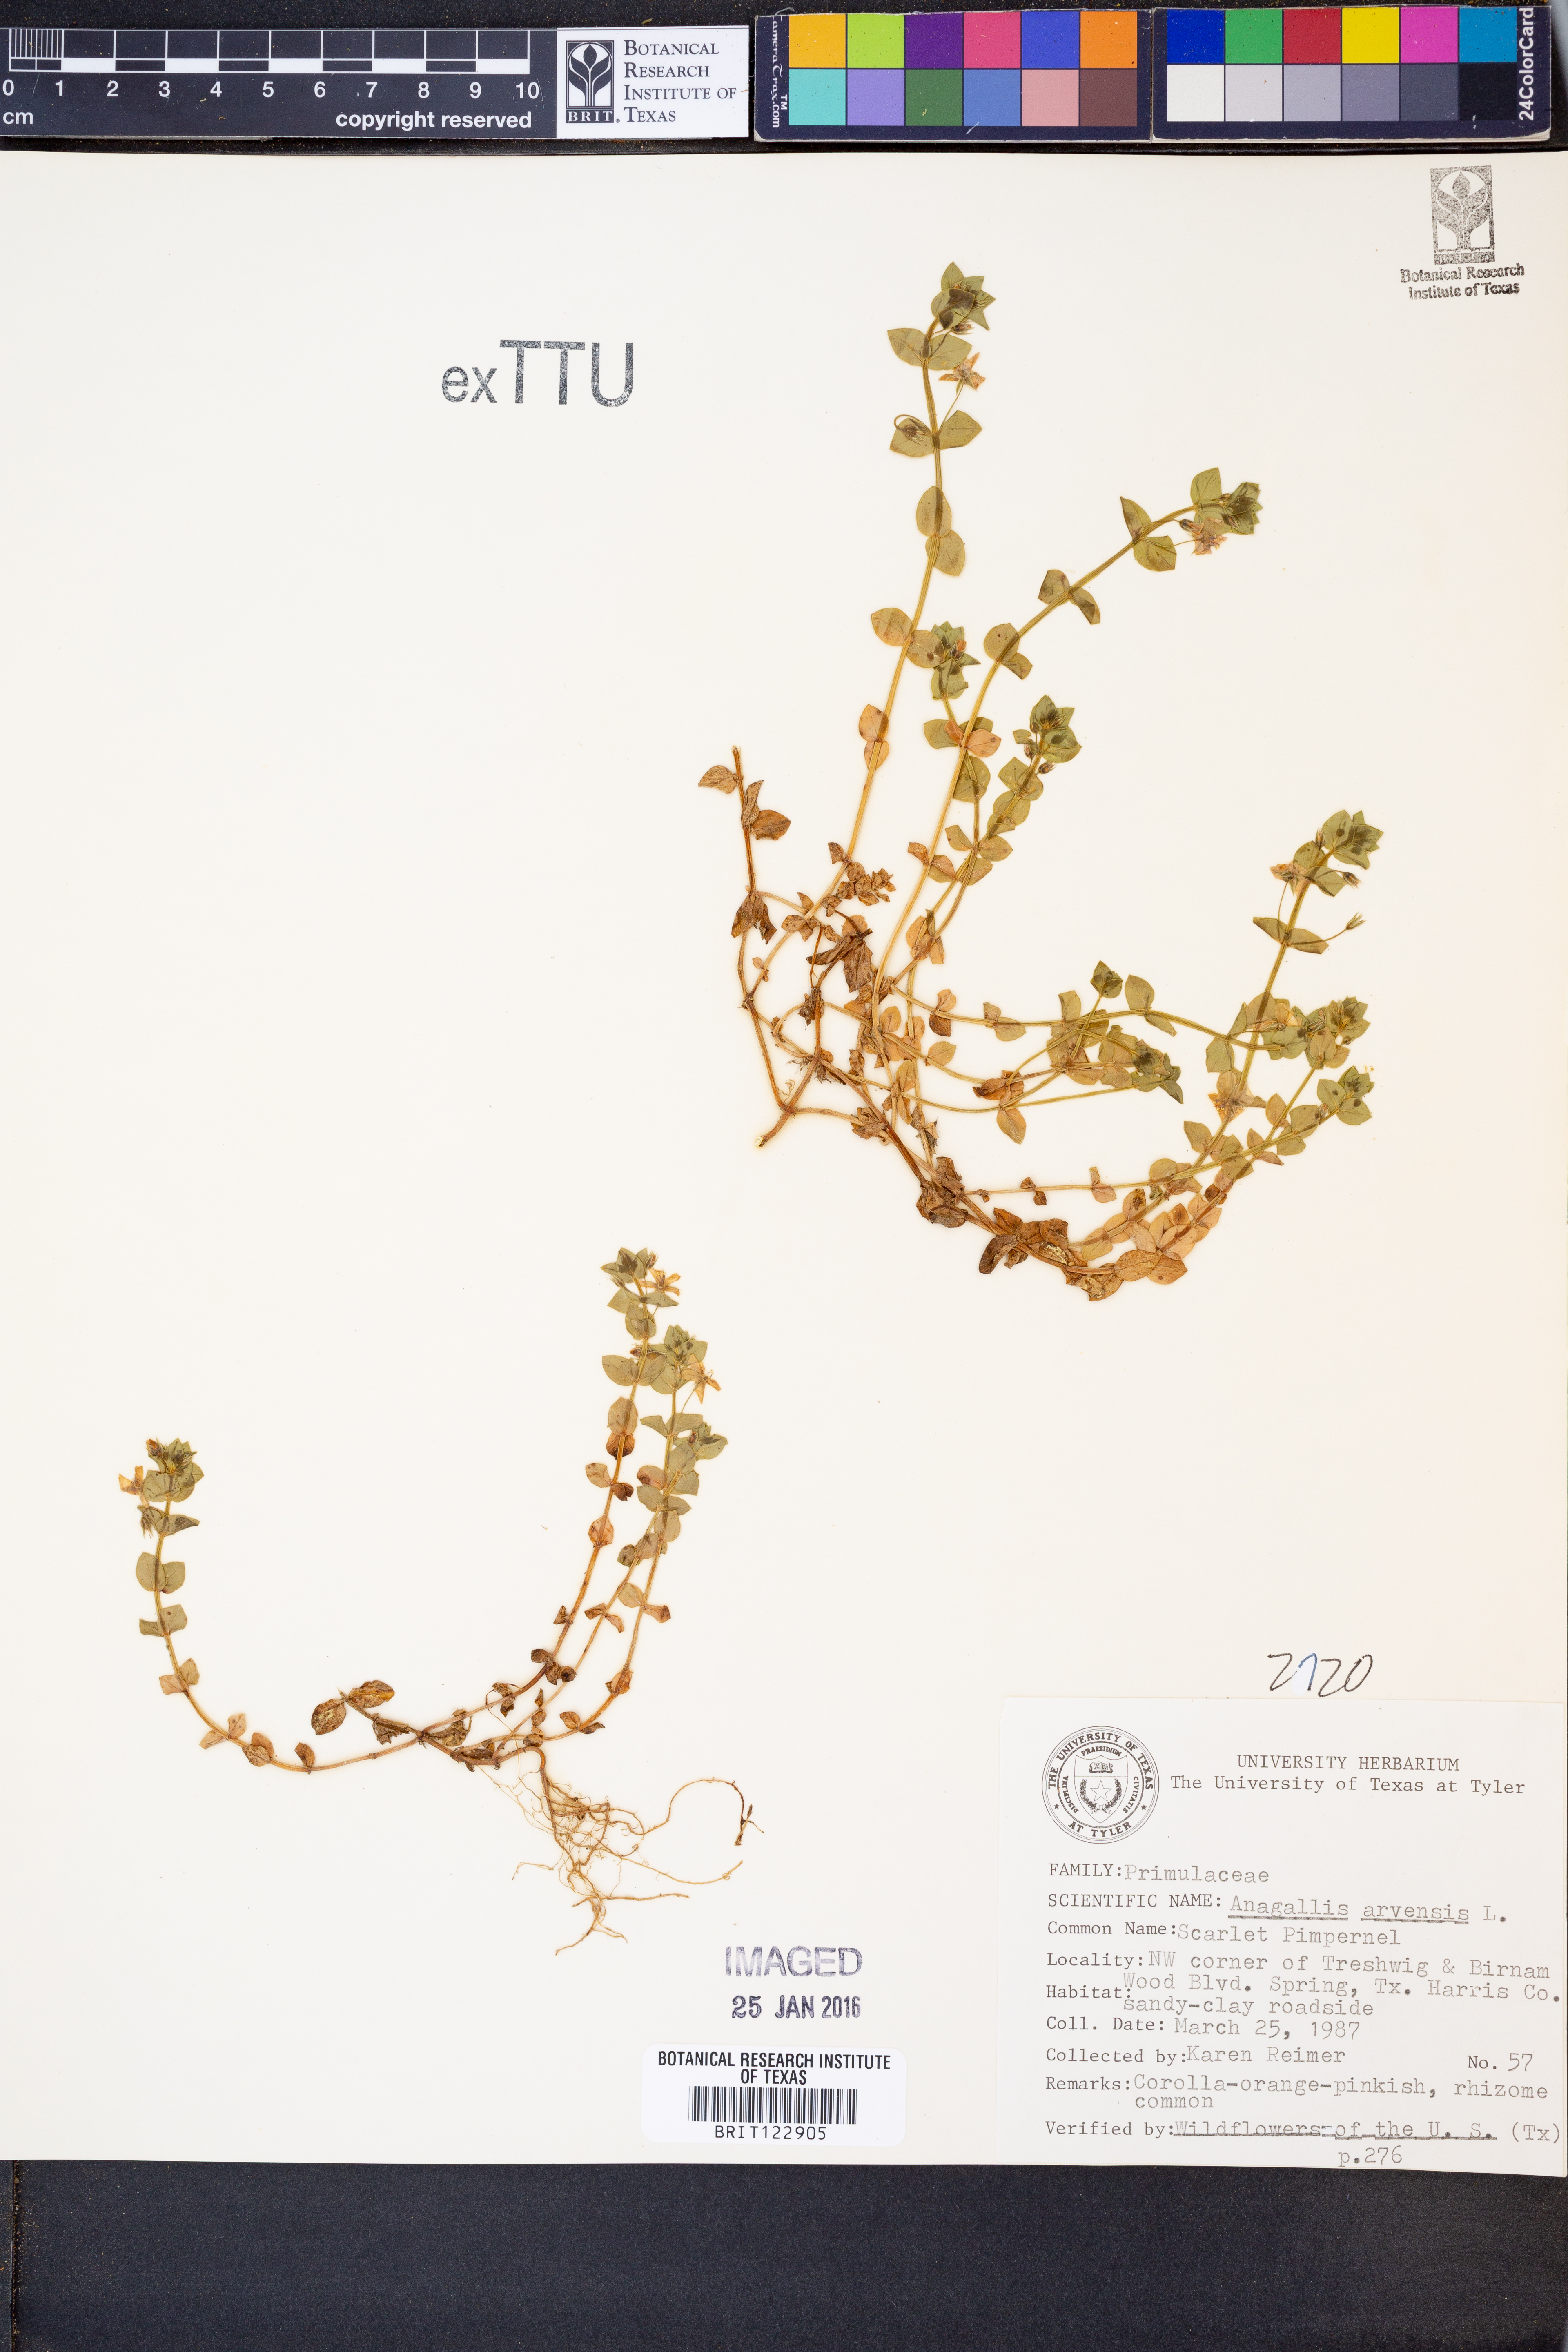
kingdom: Plantae
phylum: Tracheophyta
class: Magnoliopsida
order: Ericales
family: Primulaceae
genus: Lysimachia
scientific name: Lysimachia arvensis
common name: Scarlet pimpernel
